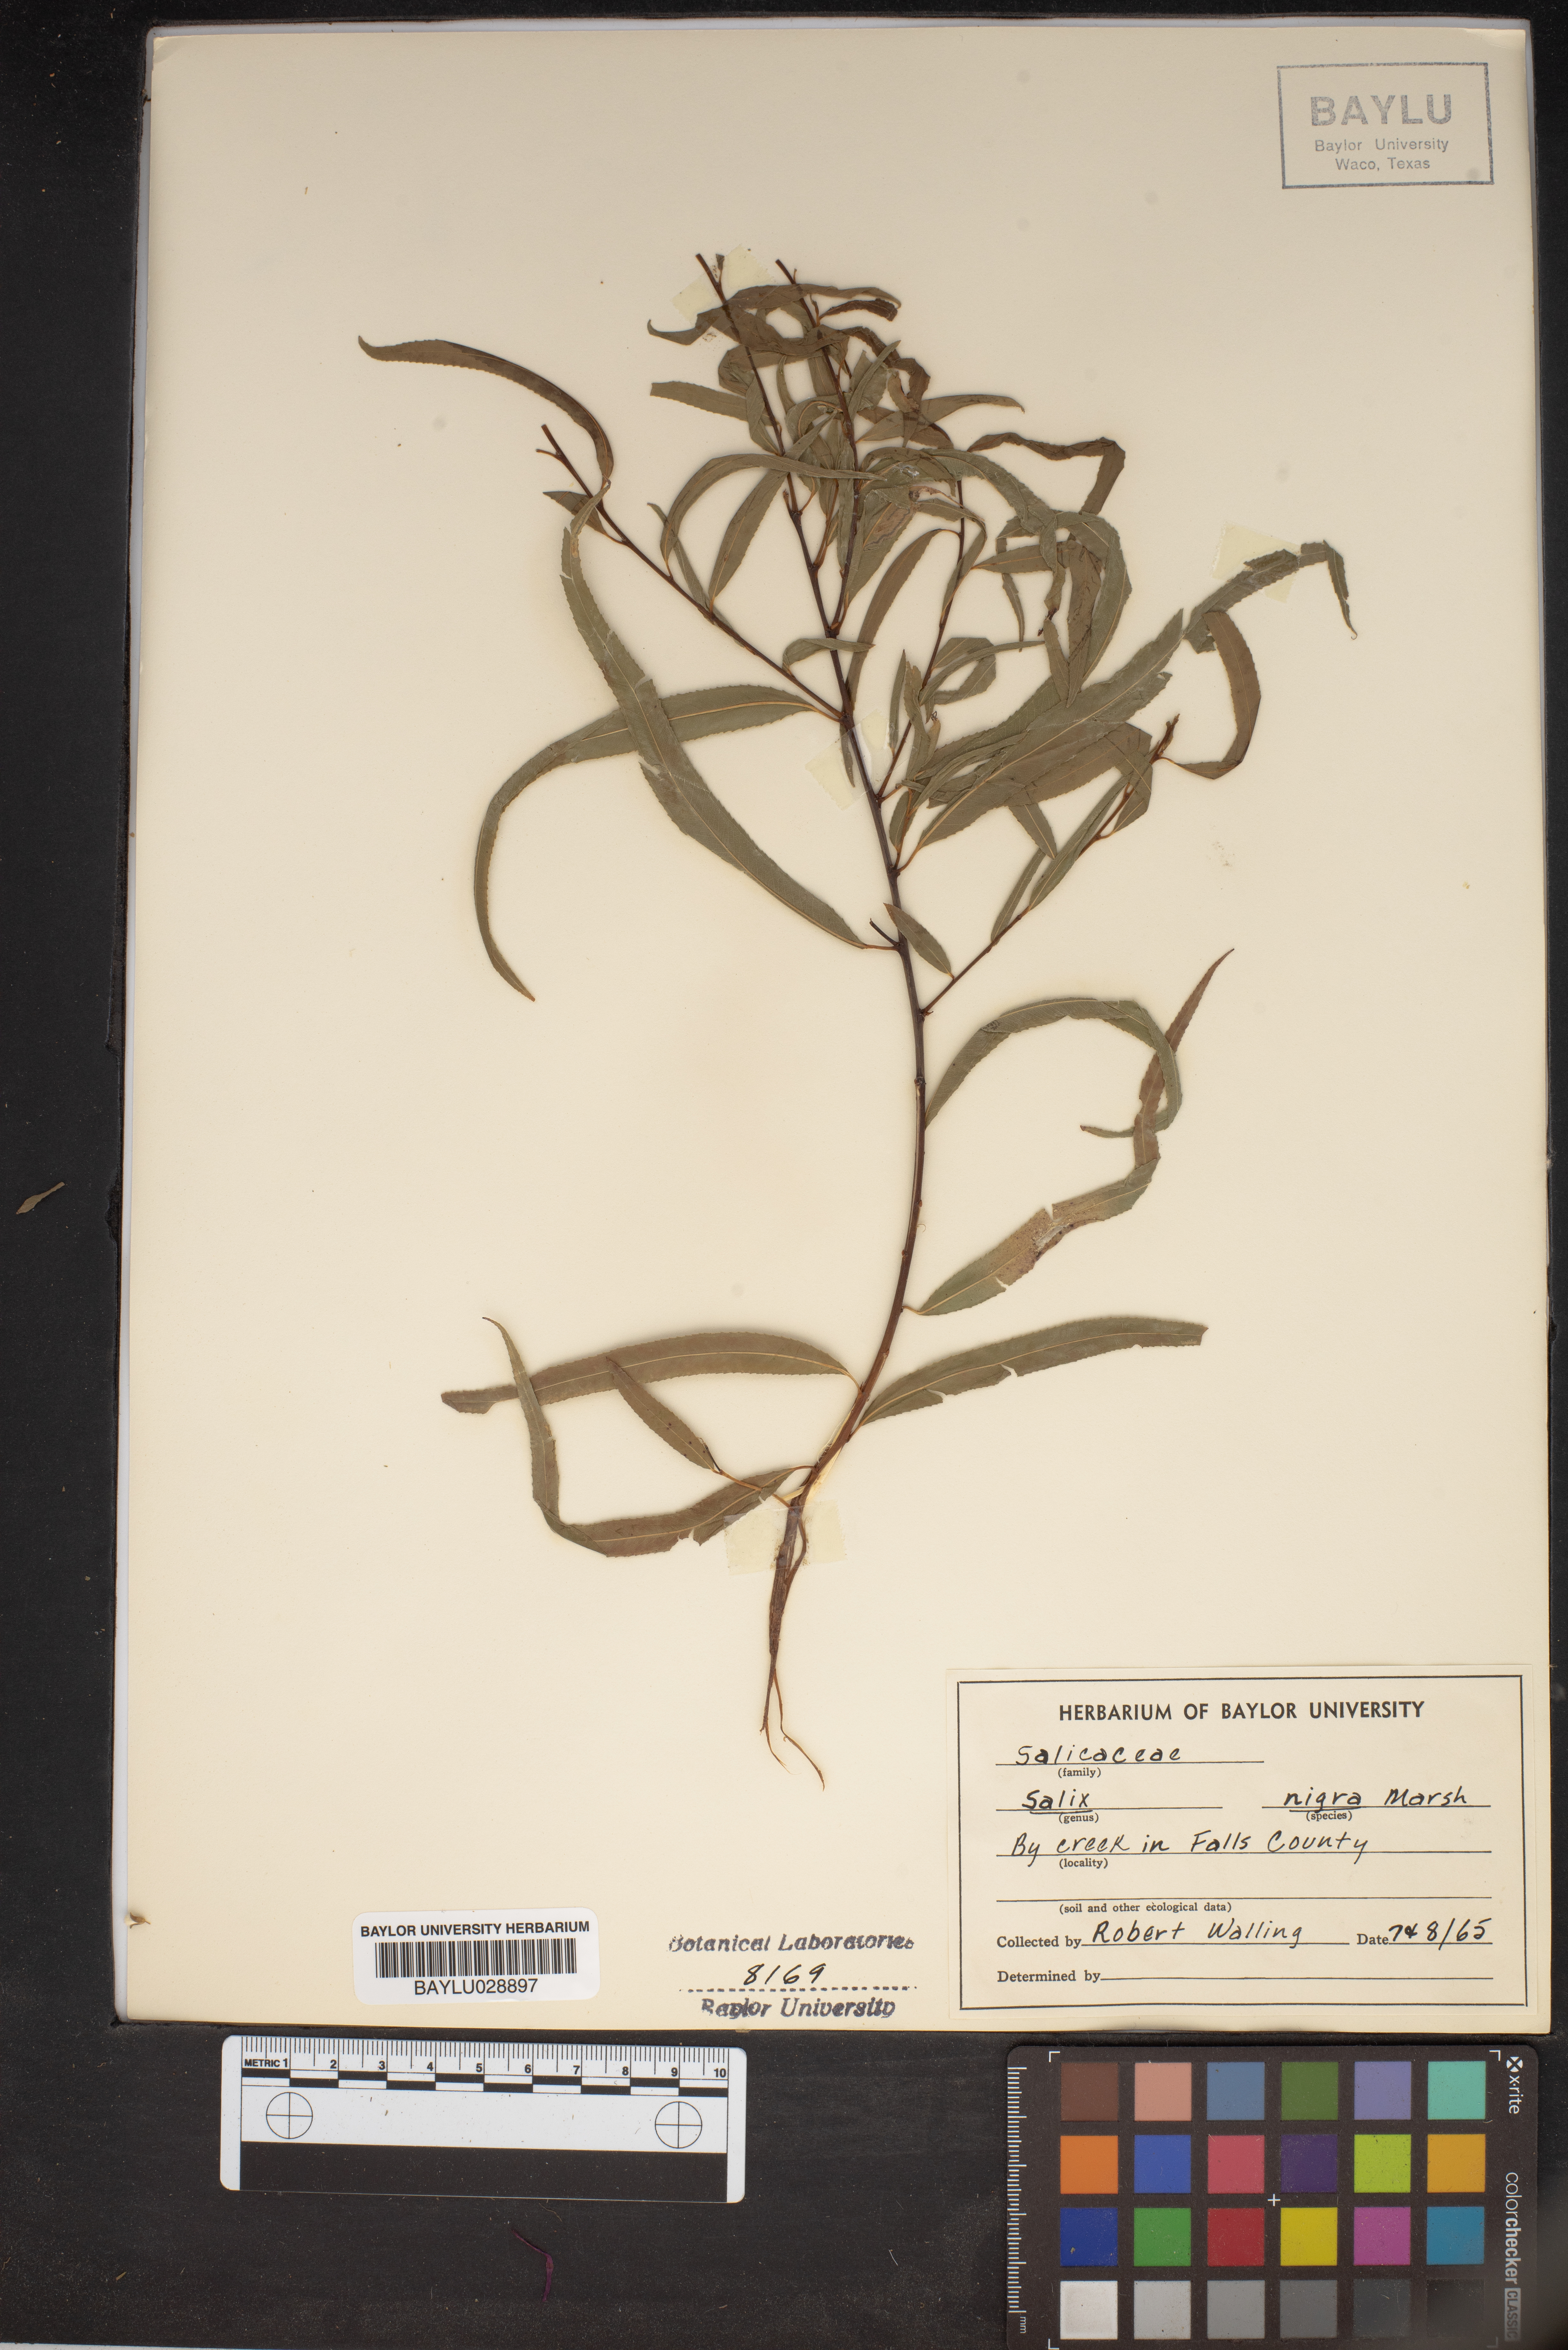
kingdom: Plantae
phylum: Tracheophyta
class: Magnoliopsida
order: Malpighiales
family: Salicaceae
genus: Salix
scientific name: Salix nigra
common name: Black willow
